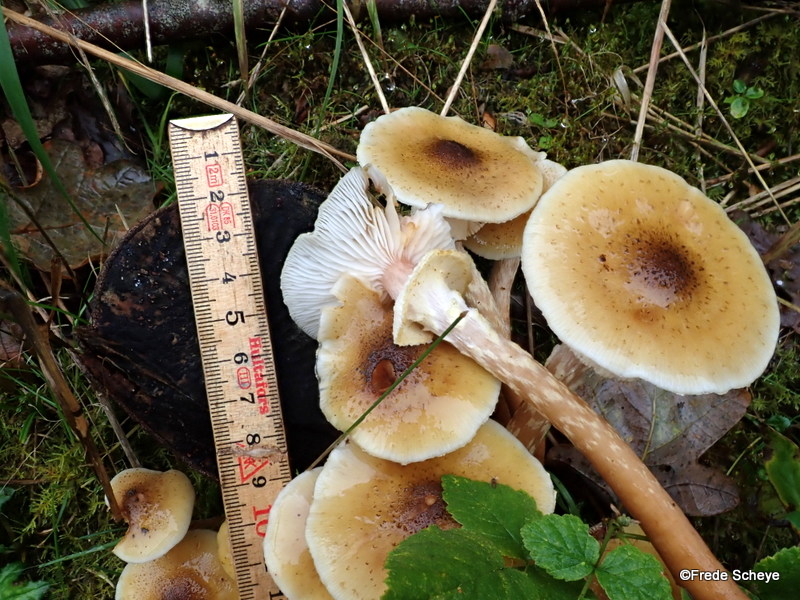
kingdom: Fungi
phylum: Basidiomycota
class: Agaricomycetes
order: Agaricales
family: Physalacriaceae
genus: Armillaria
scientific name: Armillaria mellea
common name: ægte honningsvamp
